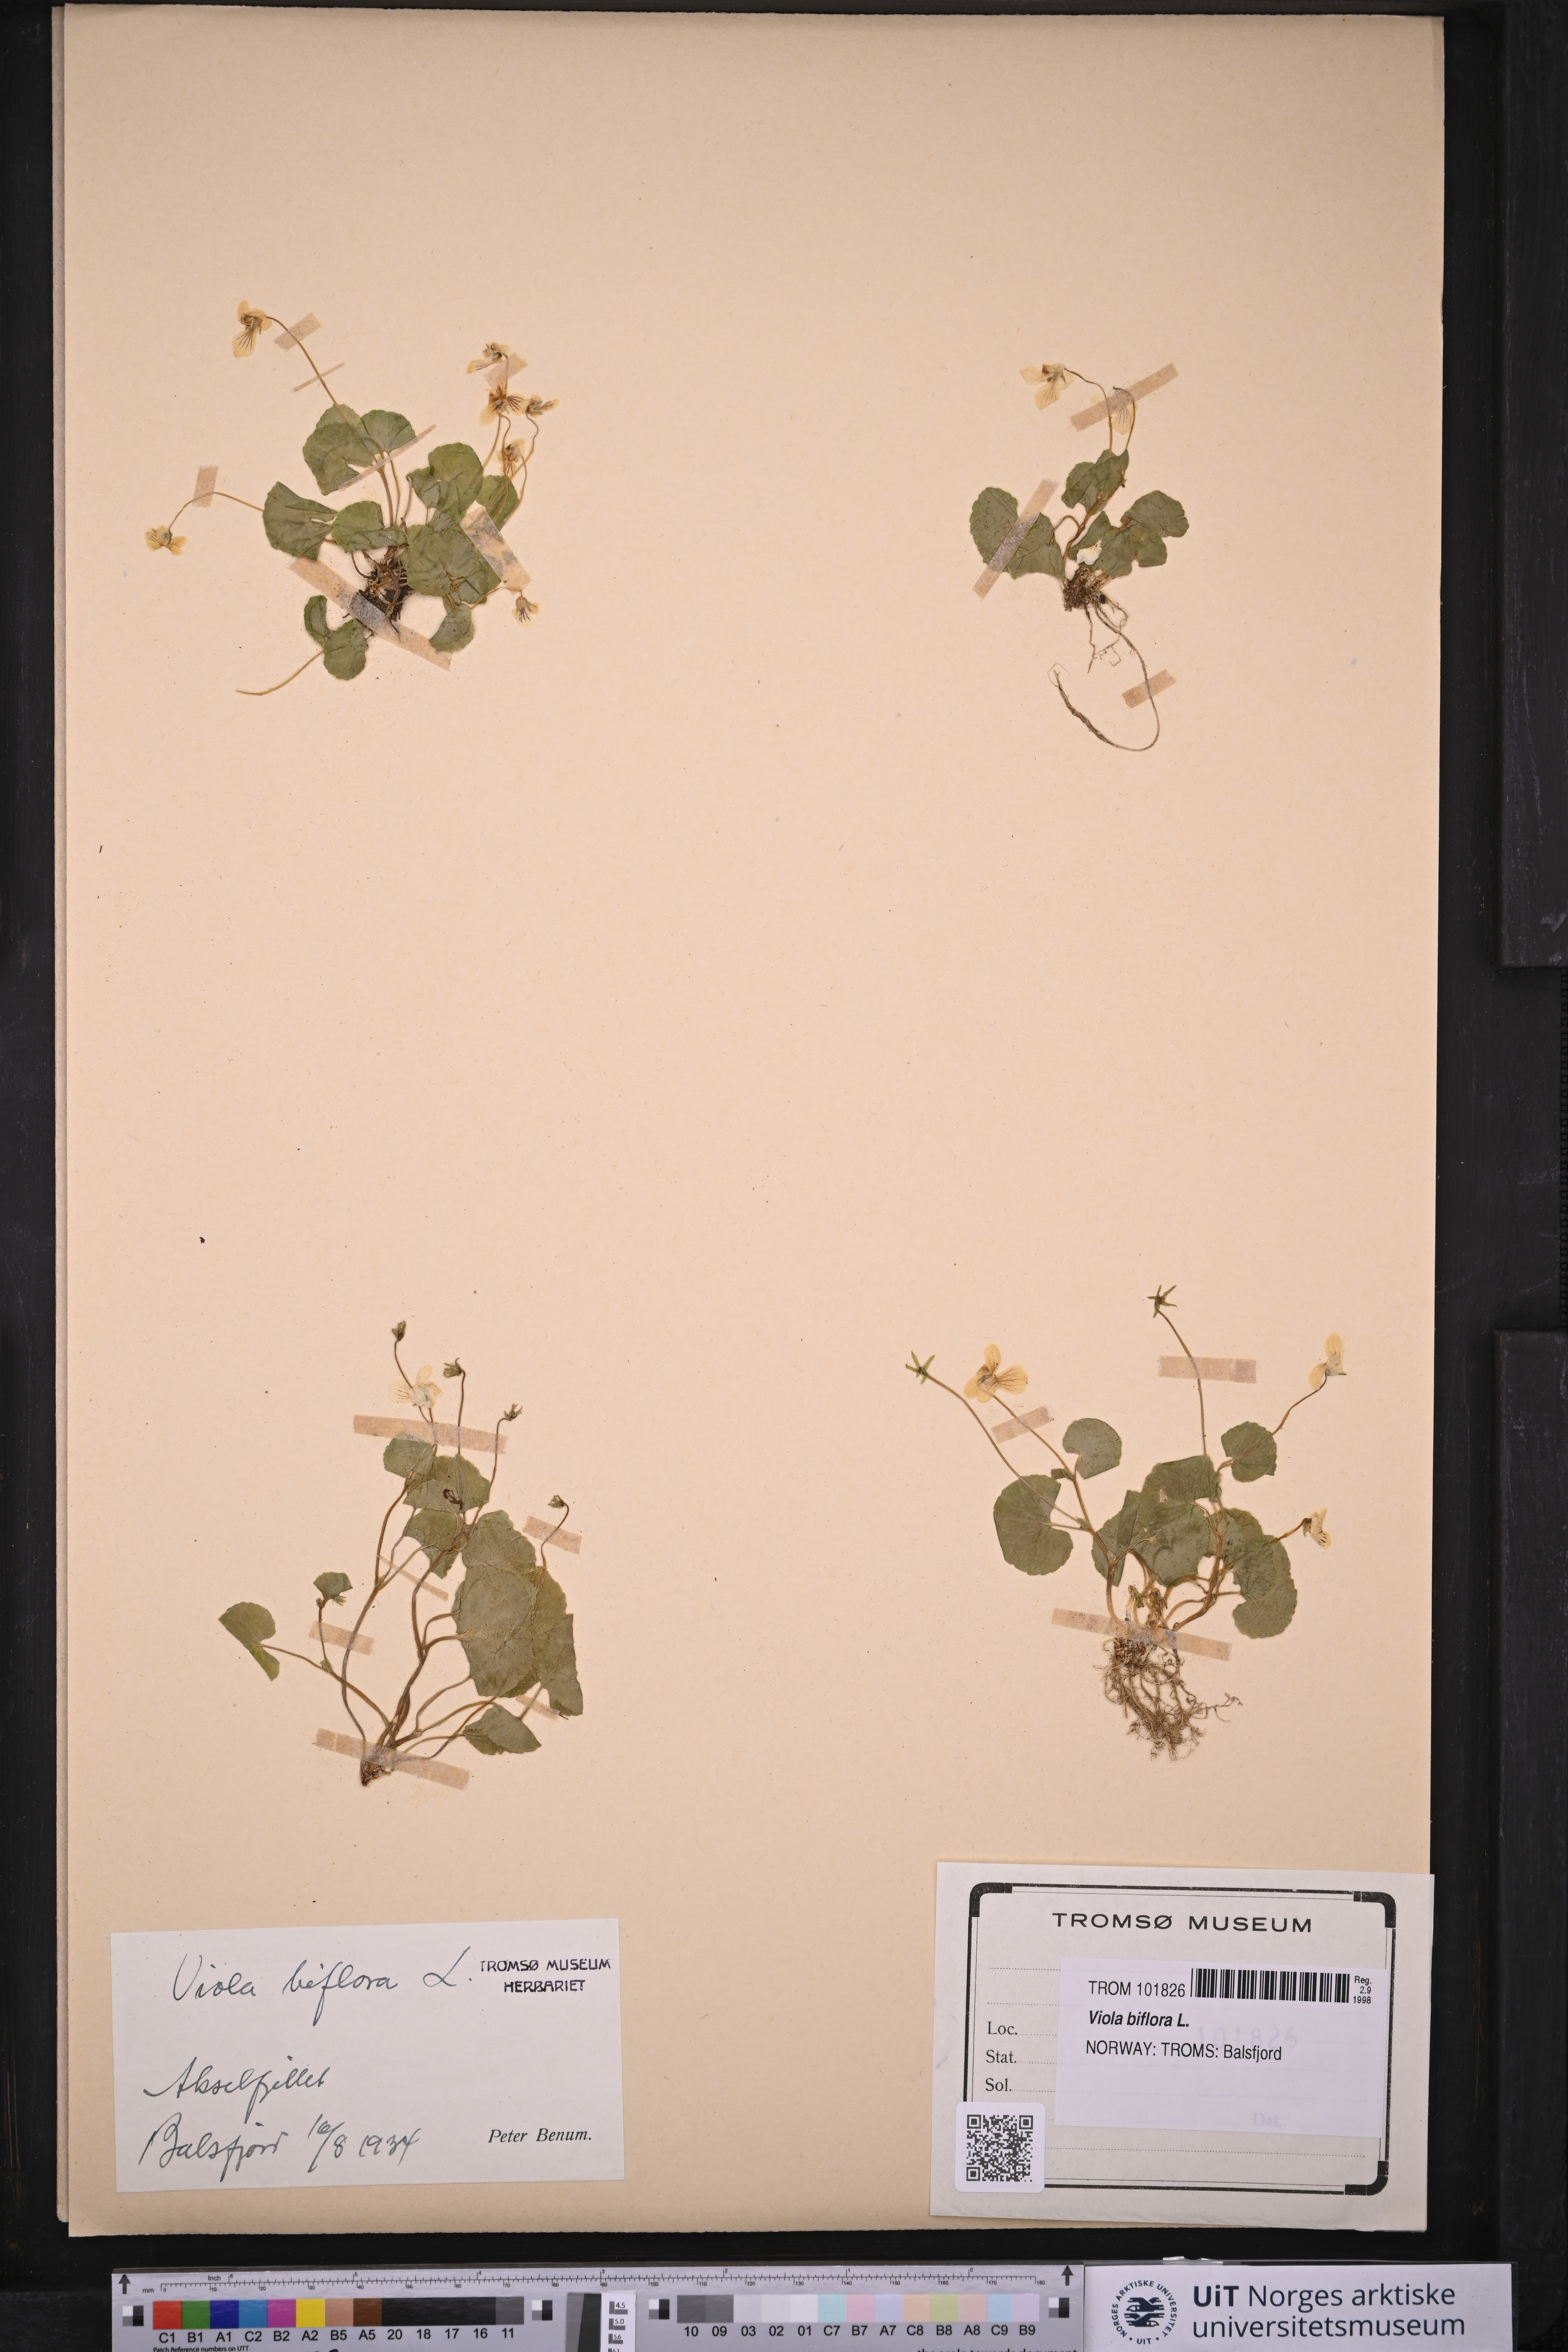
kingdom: Plantae
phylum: Tracheophyta
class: Magnoliopsida
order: Malpighiales
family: Violaceae
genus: Viola
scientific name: Viola biflora
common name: Alpine yellow violet
